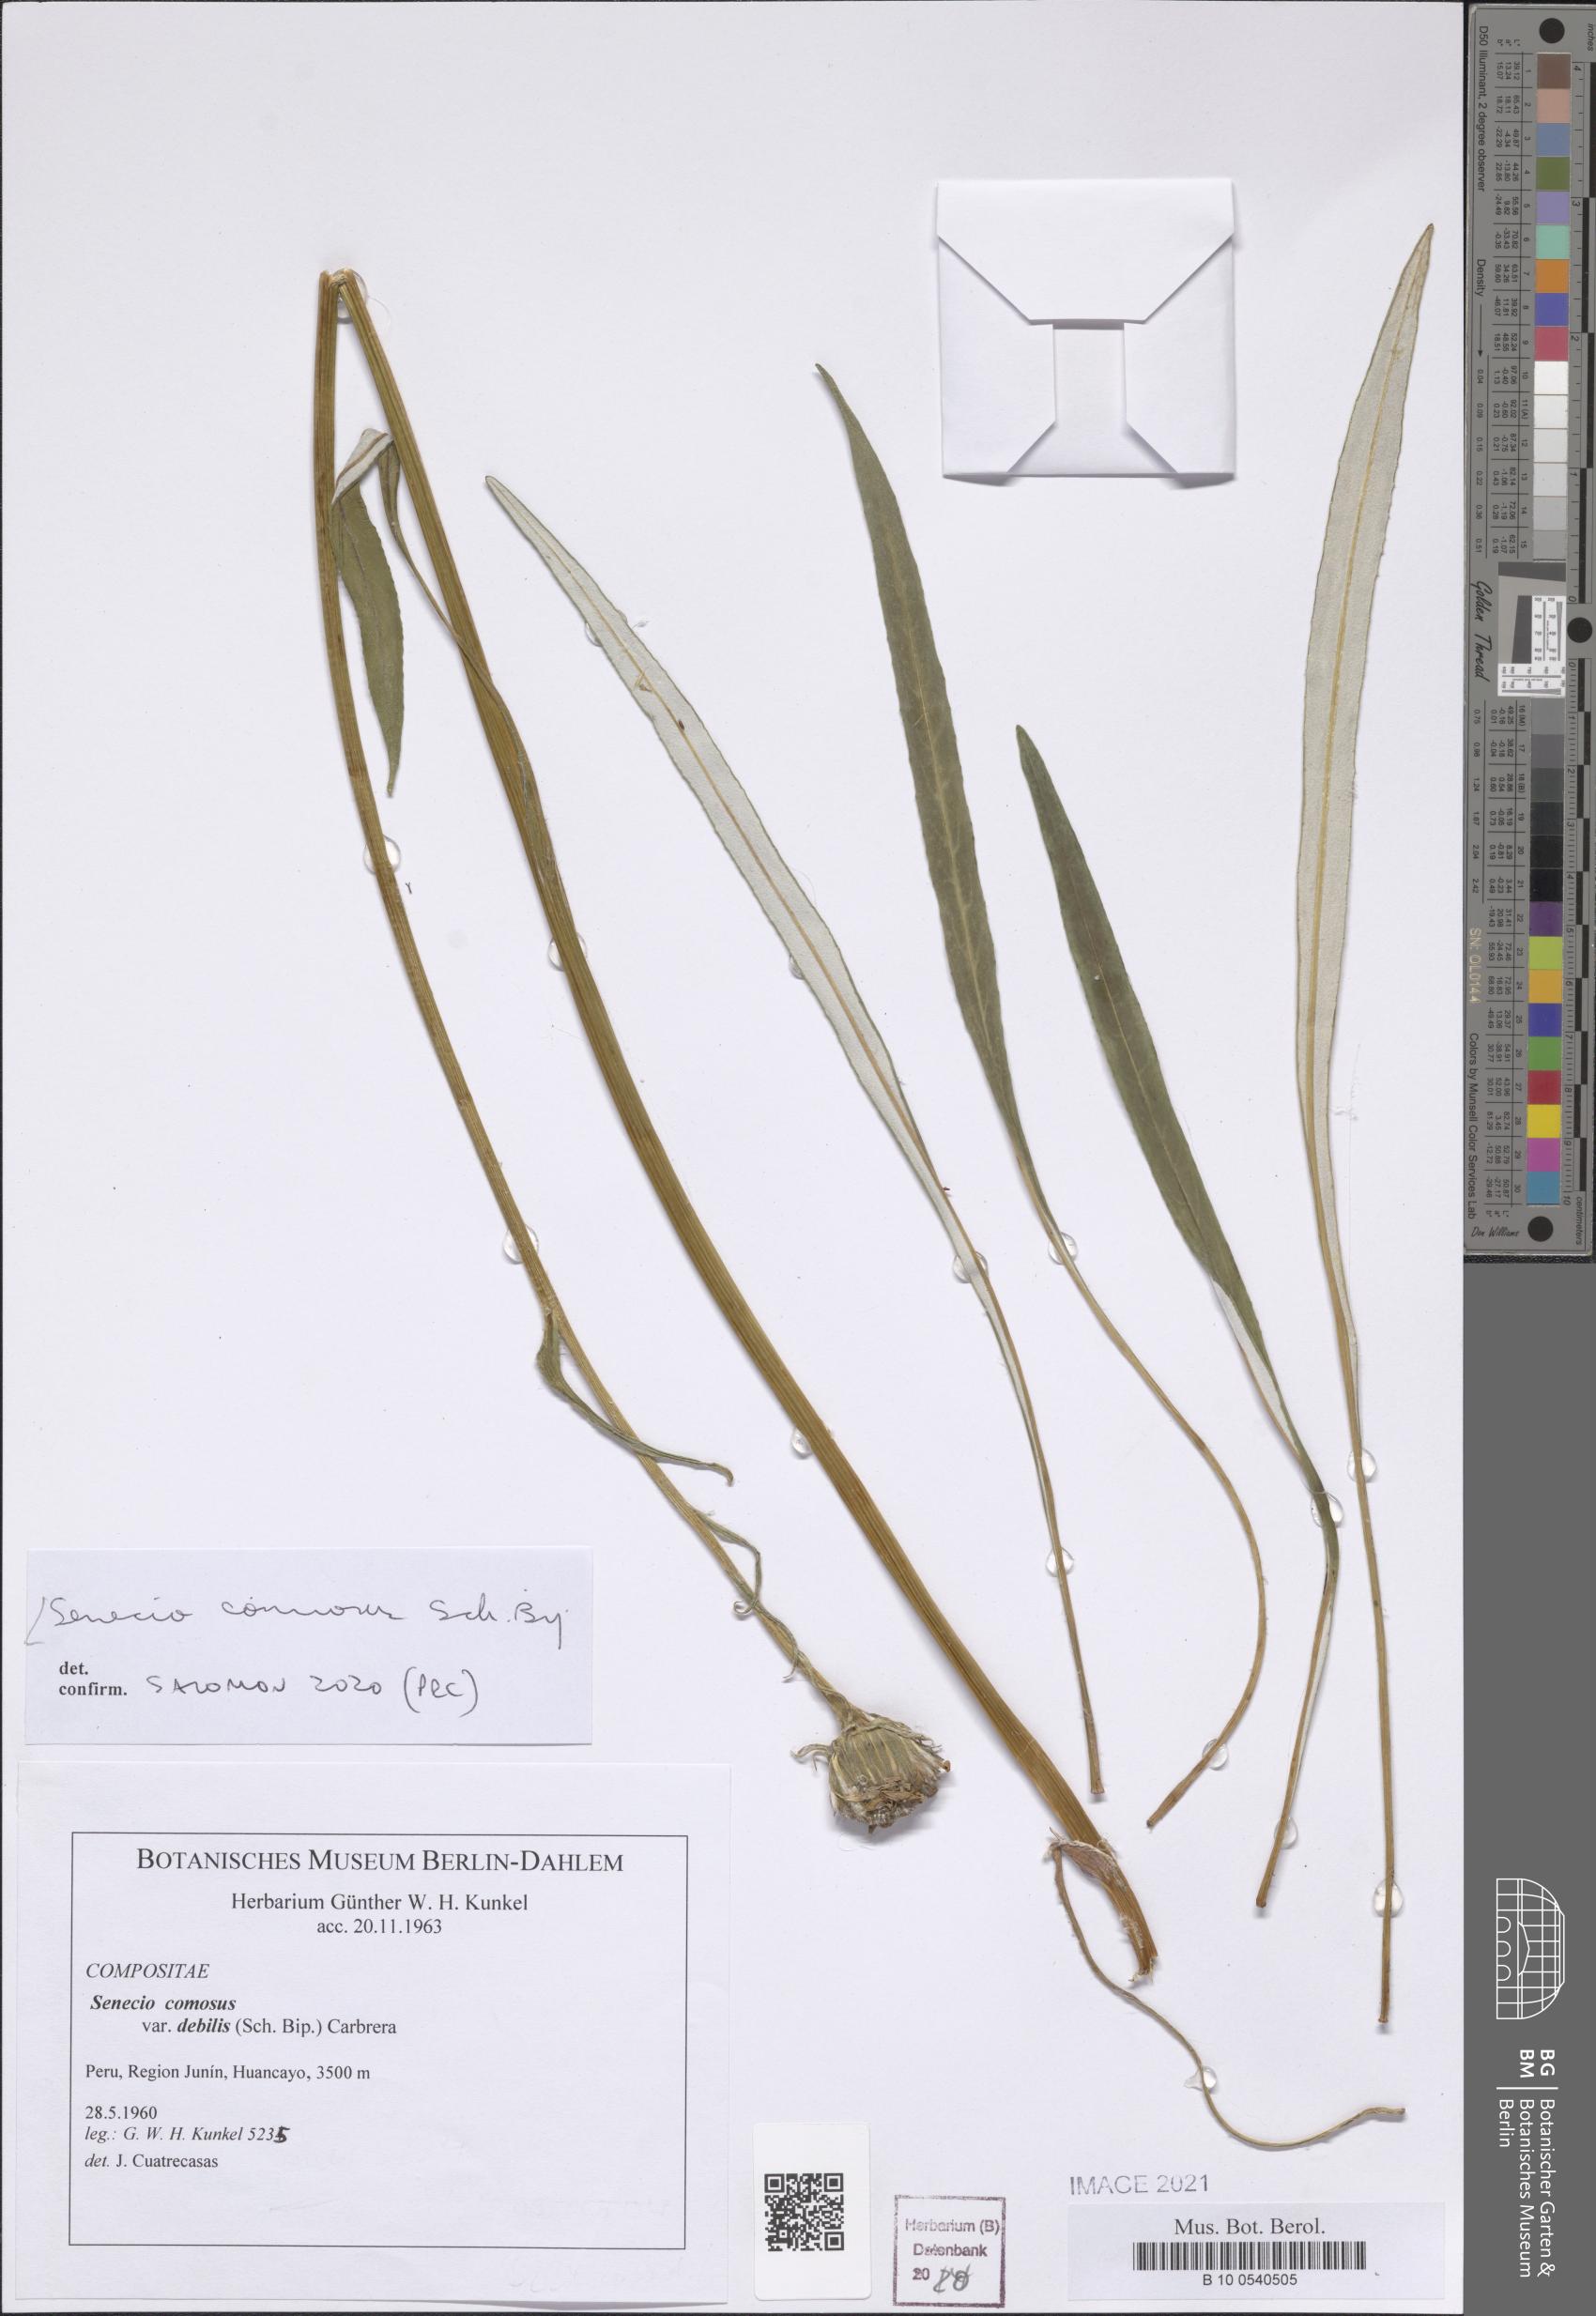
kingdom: Plantae
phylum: Tracheophyta
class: Magnoliopsida
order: Asterales
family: Asteraceae
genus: Senecio
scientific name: Senecio comosus
